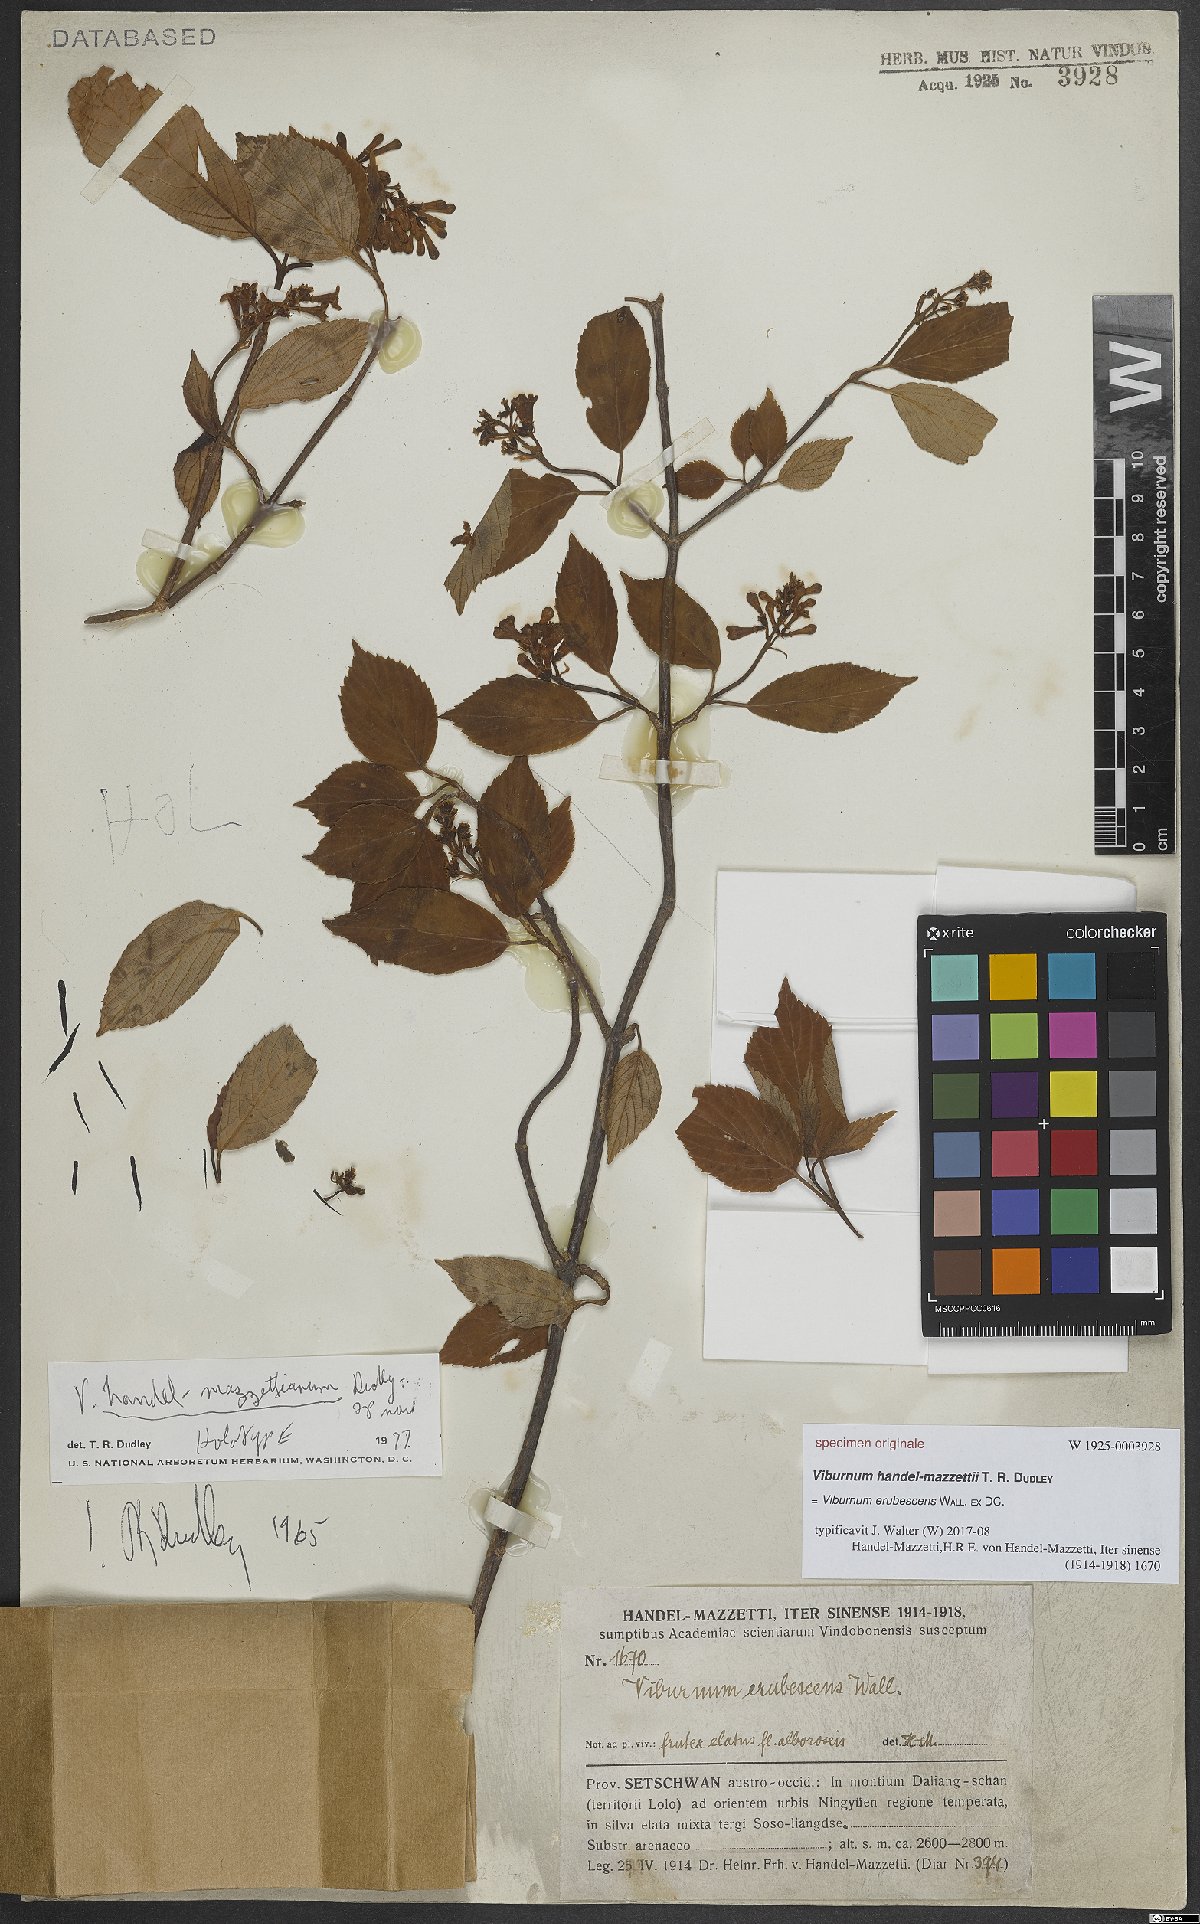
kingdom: Plantae
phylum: Tracheophyta
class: Magnoliopsida
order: Dipsacales
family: Viburnaceae
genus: Viburnum
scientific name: Viburnum erubescens
